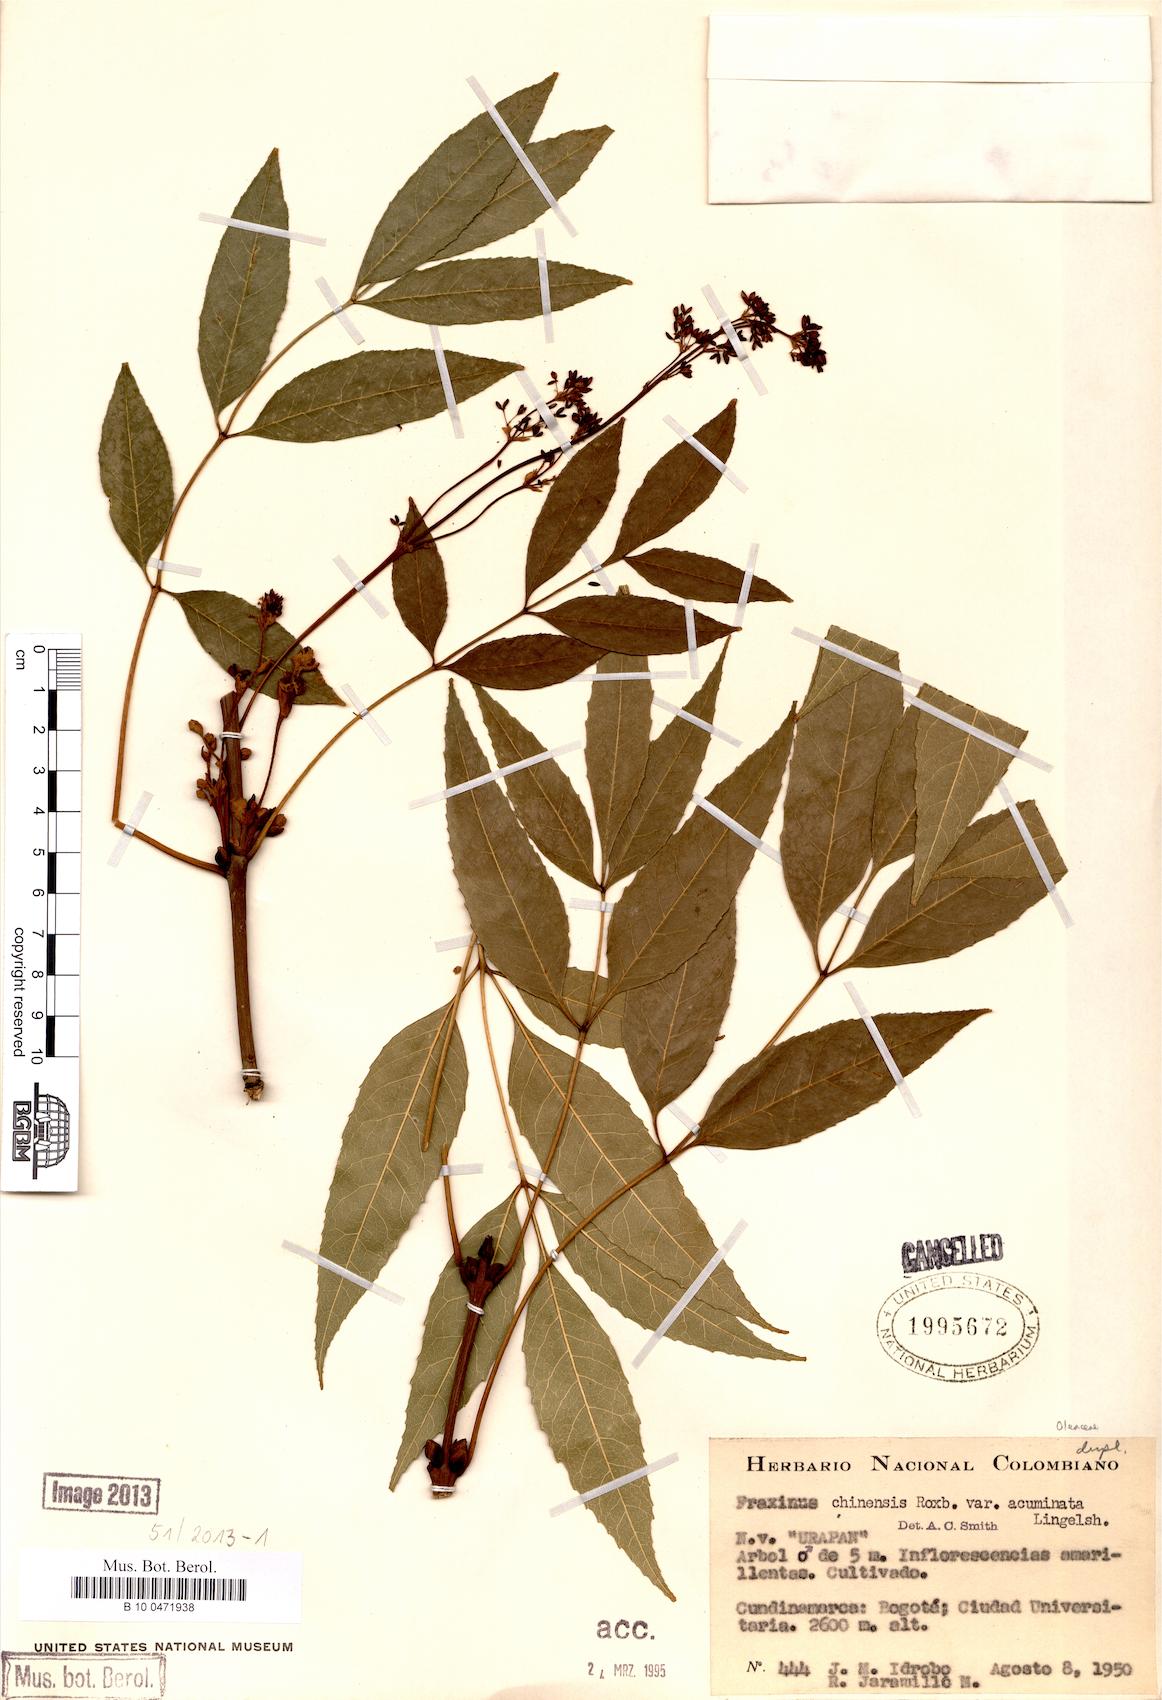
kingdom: Plantae
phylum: Tracheophyta
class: Magnoliopsida
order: Lamiales
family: Oleaceae
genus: Fraxinus
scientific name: Fraxinus longicuspis
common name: Japanese ash
